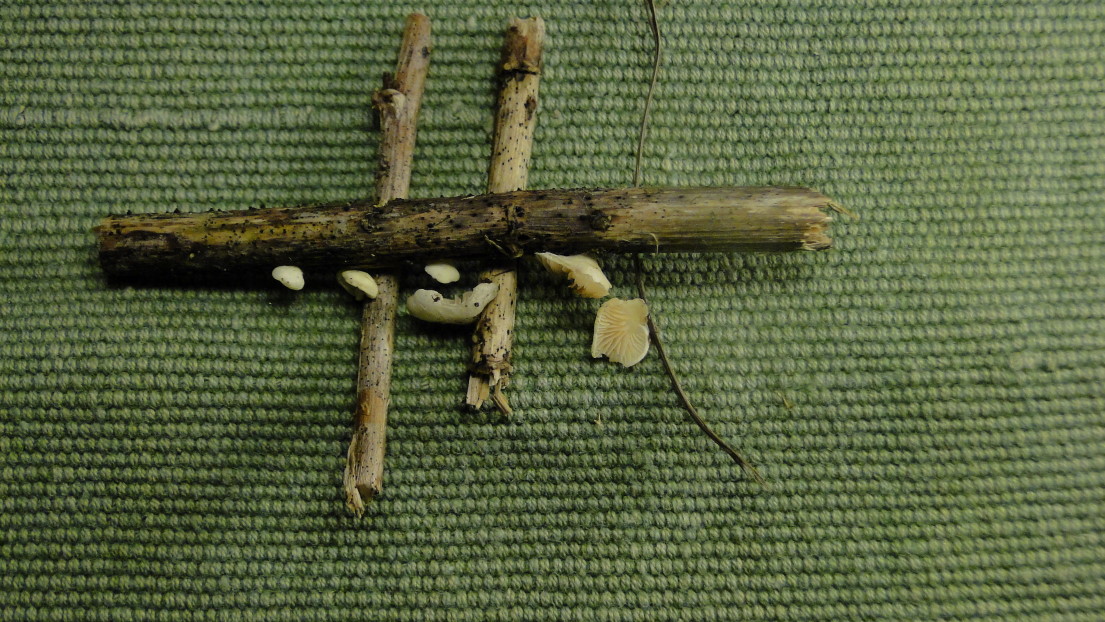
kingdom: Fungi
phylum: Basidiomycota
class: Agaricomycetes
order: Agaricales
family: Crepidotaceae
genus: Crepidotus
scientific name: Crepidotus luteolus
